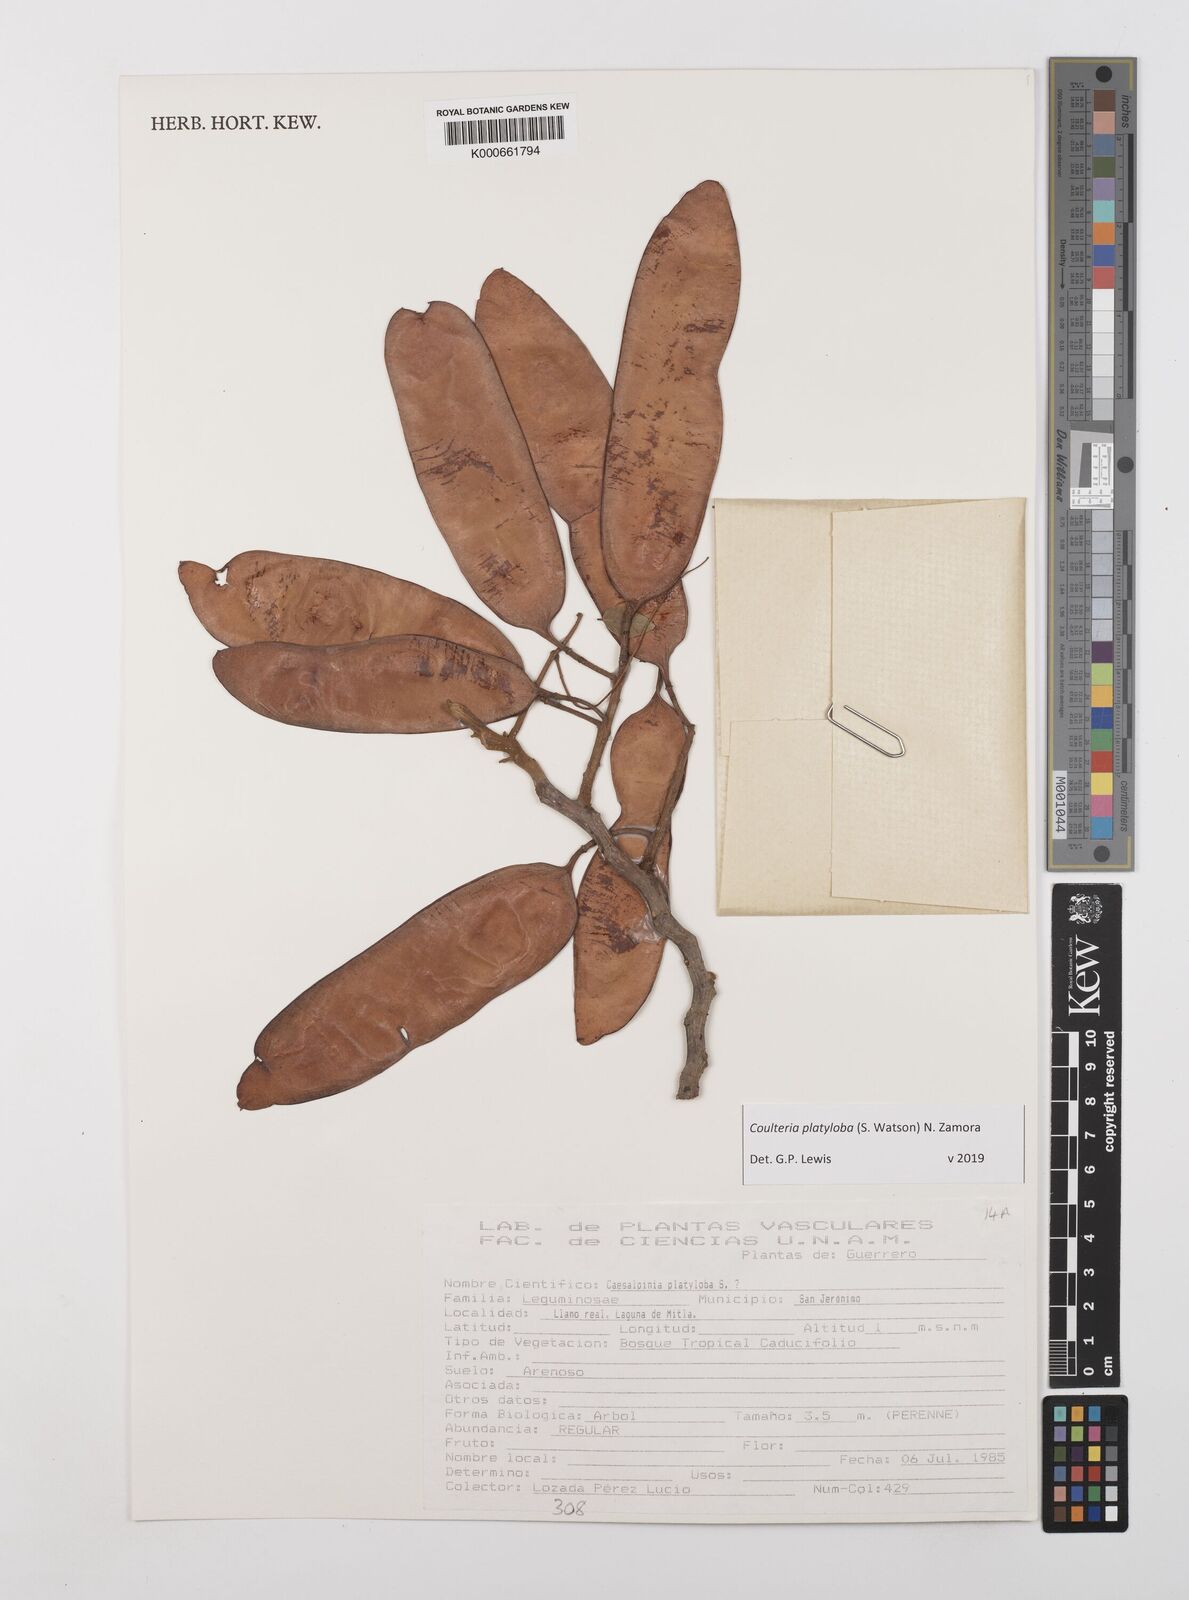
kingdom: Plantae
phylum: Tracheophyta
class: Magnoliopsida
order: Fabales
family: Fabaceae
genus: Coulteria
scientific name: Coulteria platyloba
